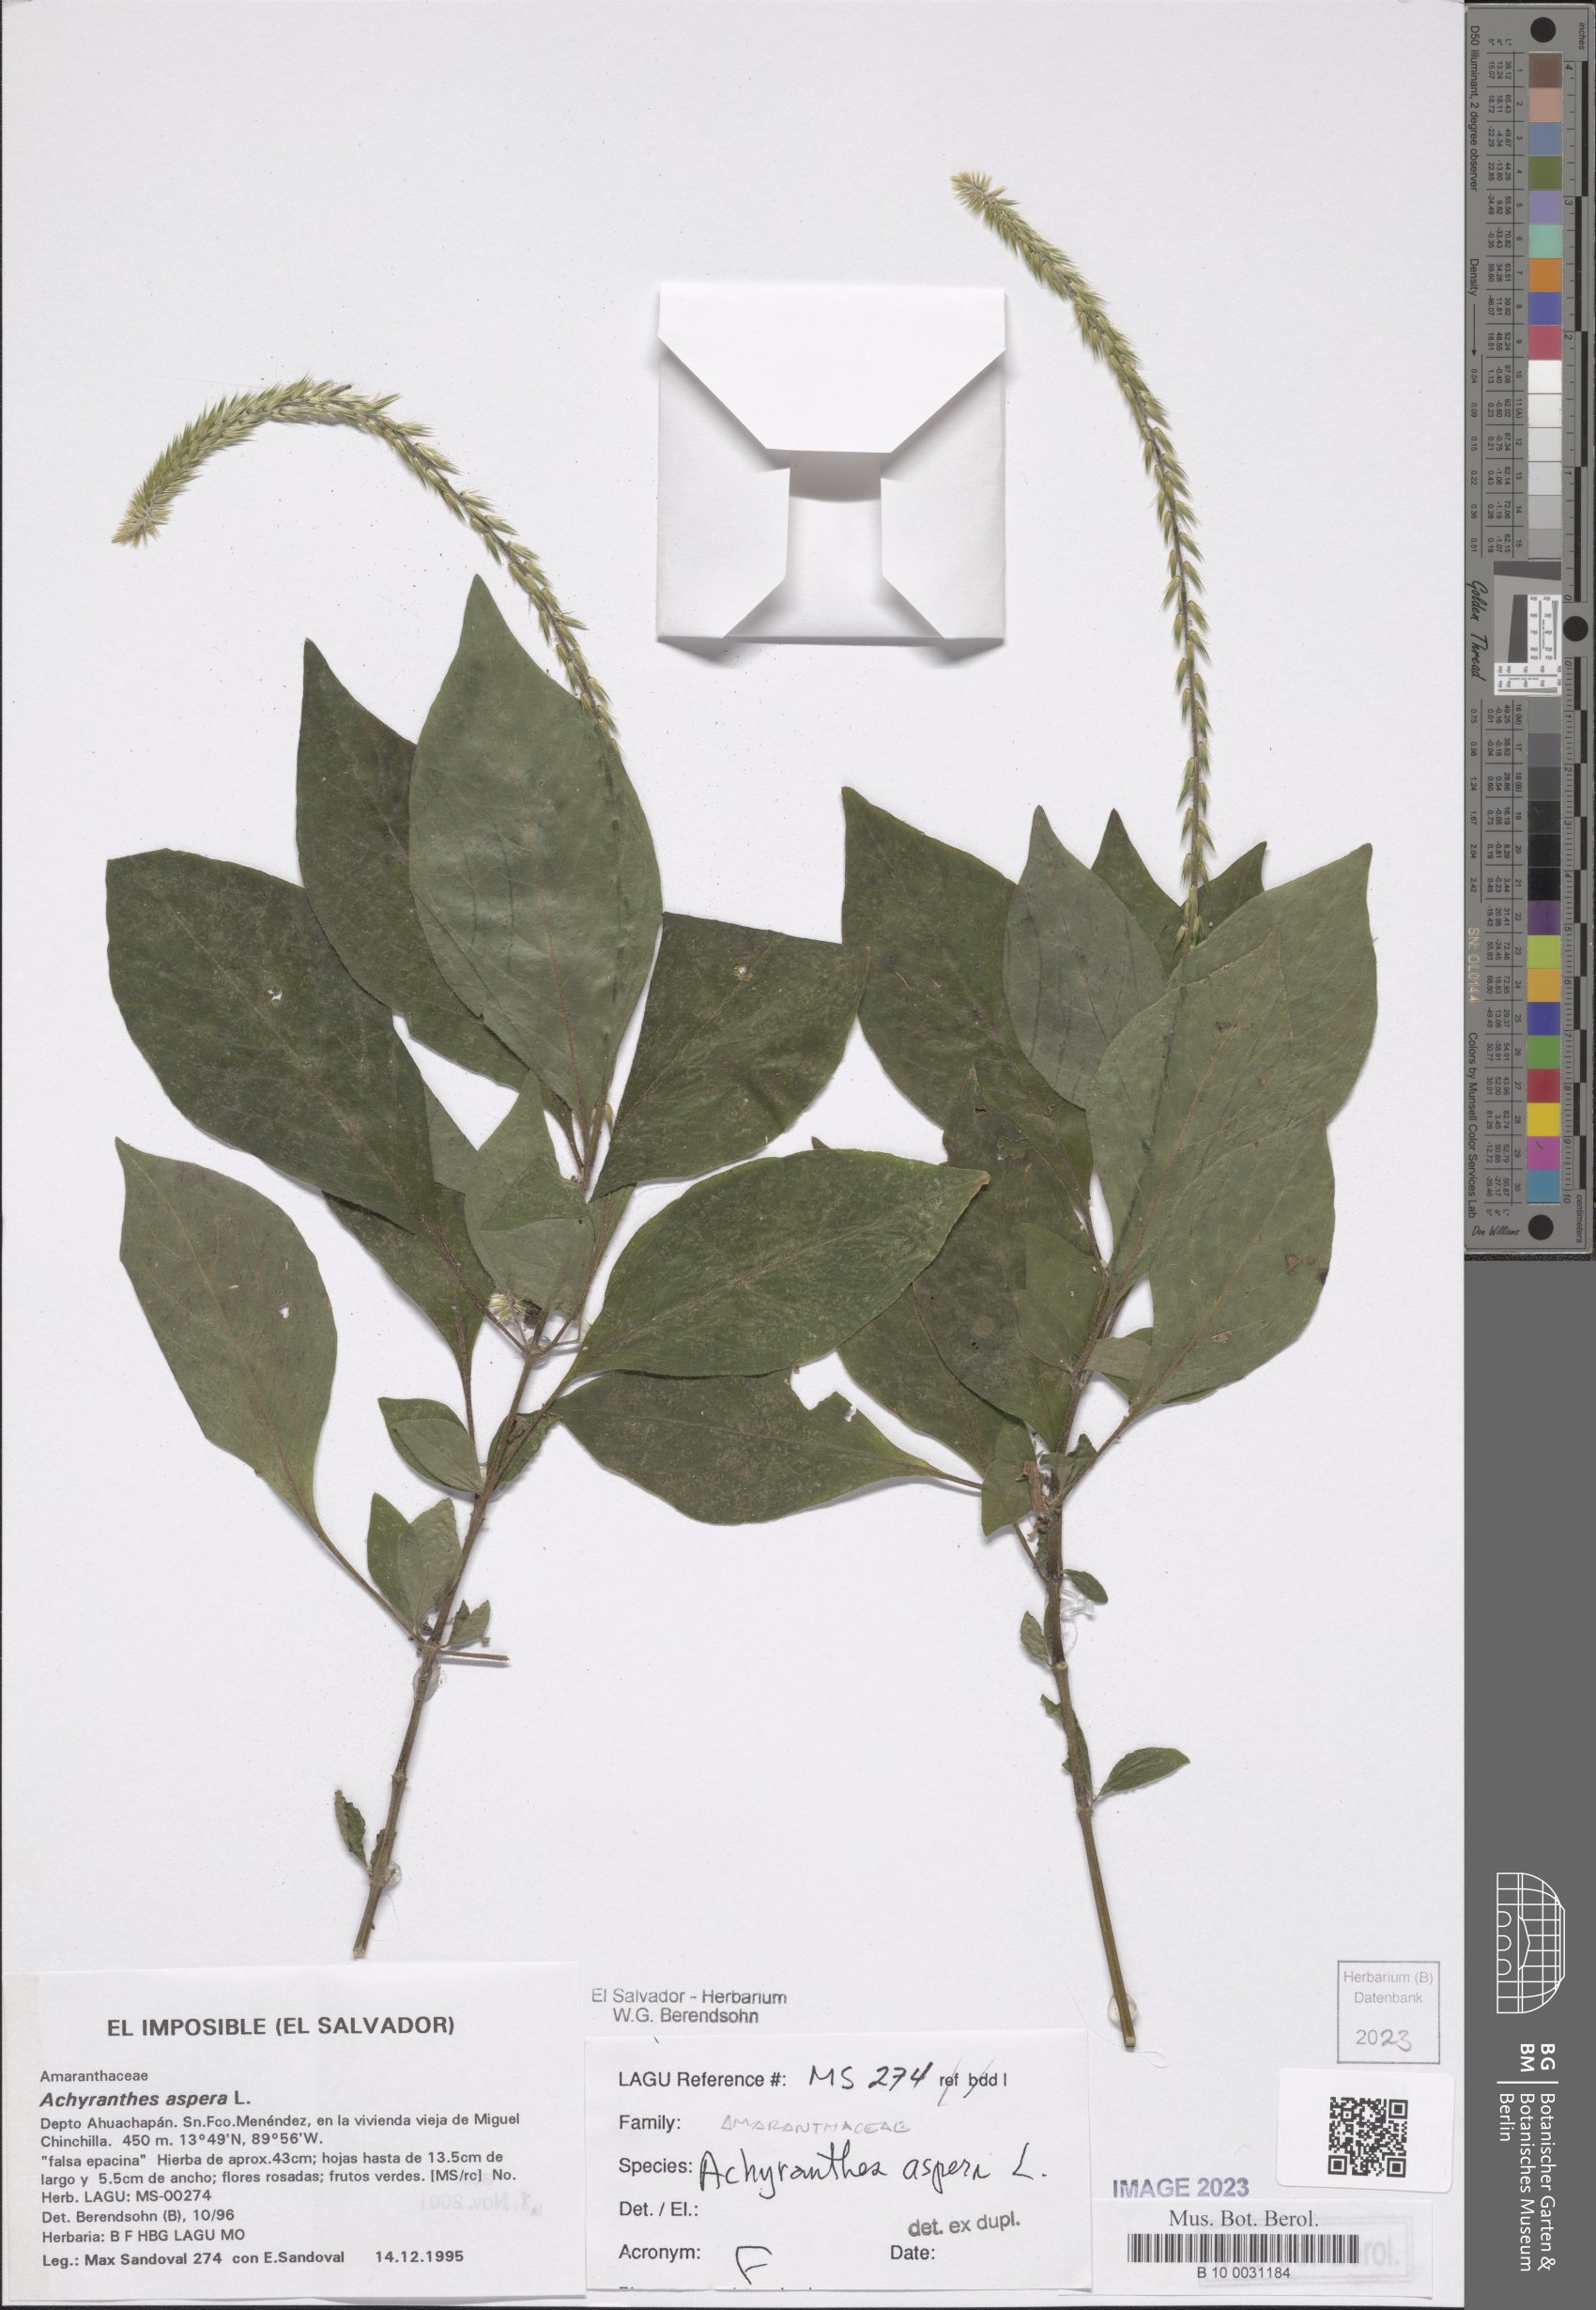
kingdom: Plantae
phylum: Tracheophyta
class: Magnoliopsida
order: Caryophyllales
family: Amaranthaceae
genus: Achyranthes
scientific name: Achyranthes aspera
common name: Devil's horsewhip
